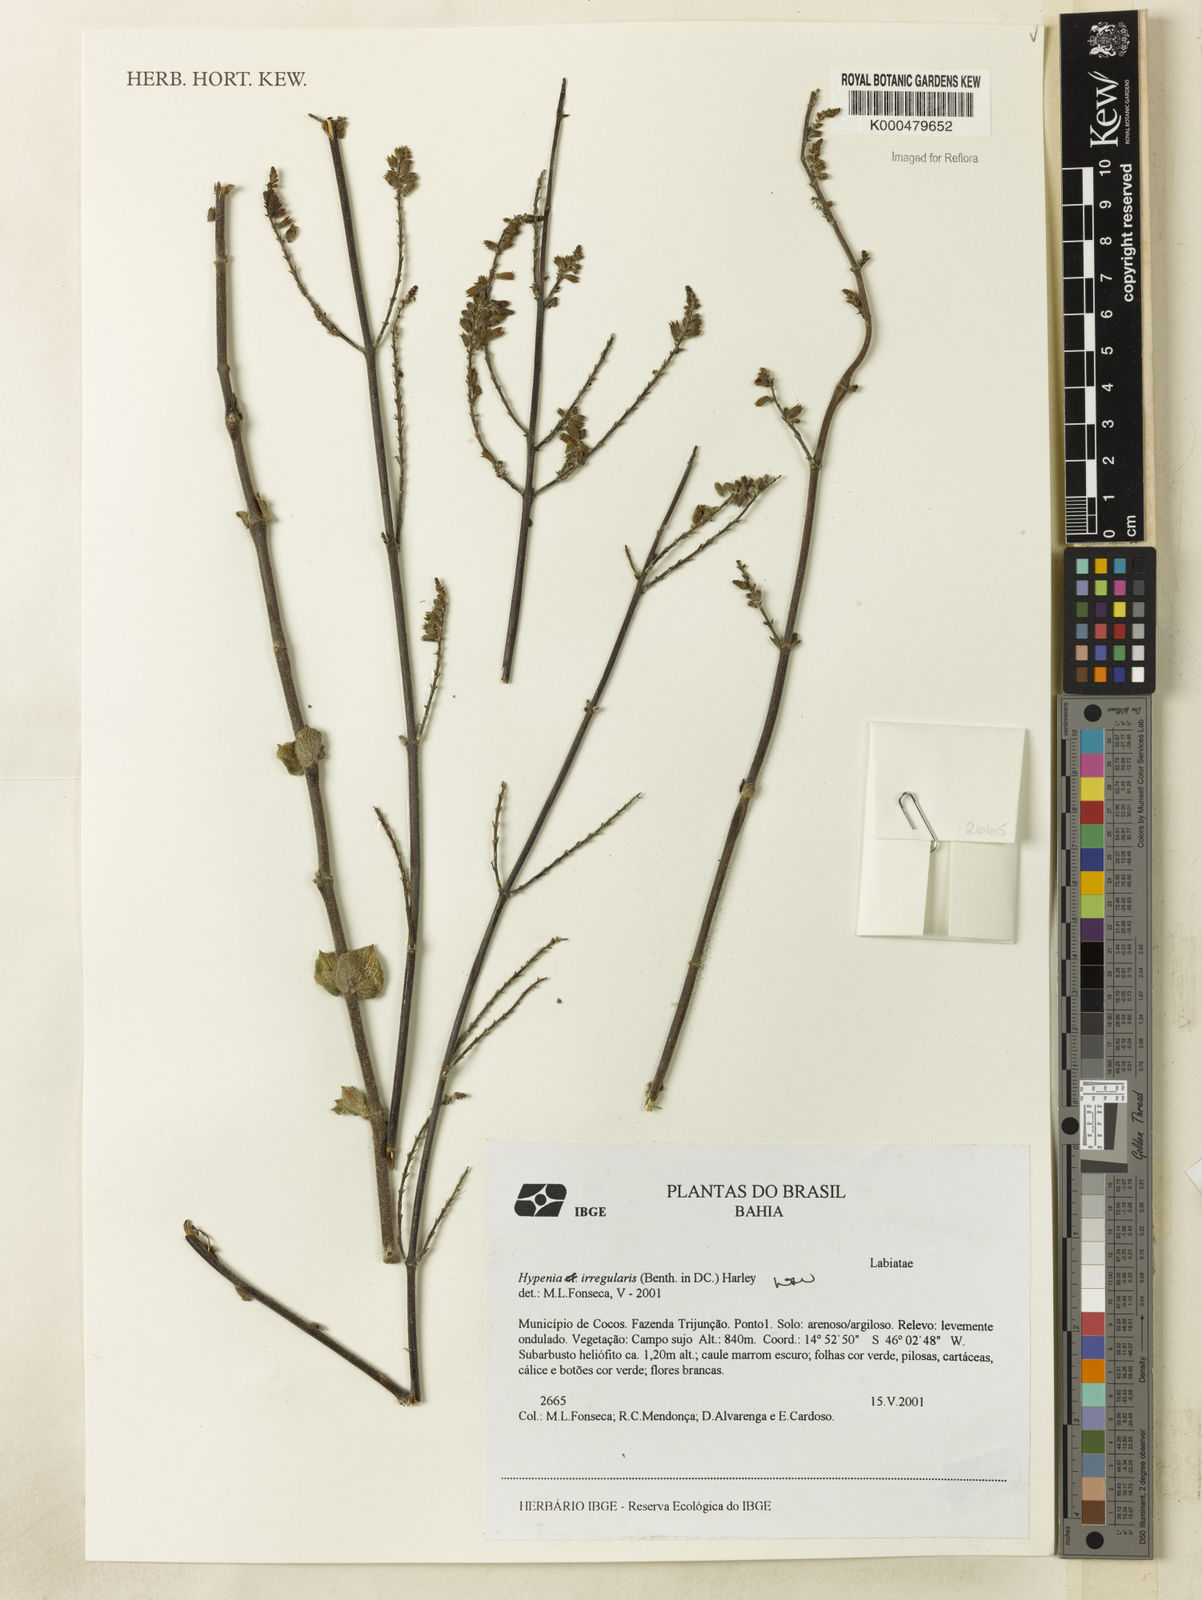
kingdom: Plantae
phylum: Tracheophyta
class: Magnoliopsida
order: Lamiales
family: Lamiaceae
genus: Hypenia
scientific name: Hypenia irregularis
